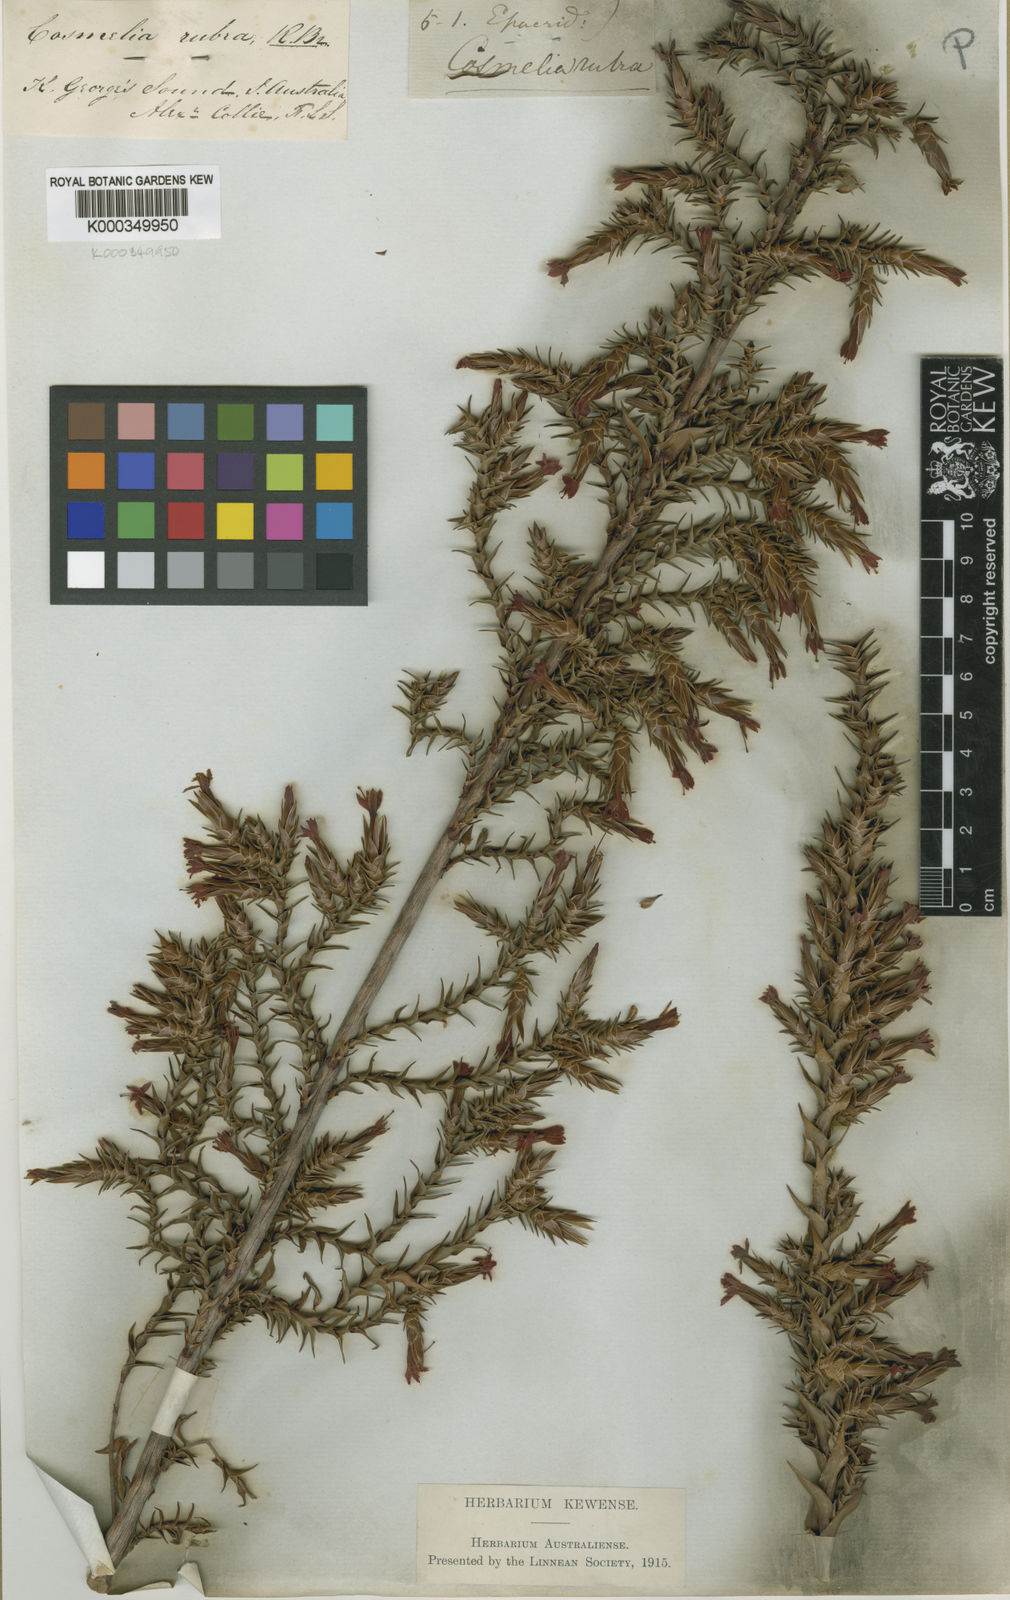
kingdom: Plantae
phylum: Tracheophyta
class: Magnoliopsida
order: Ericales
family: Ericaceae
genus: Cosmelia
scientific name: Cosmelia rubra
